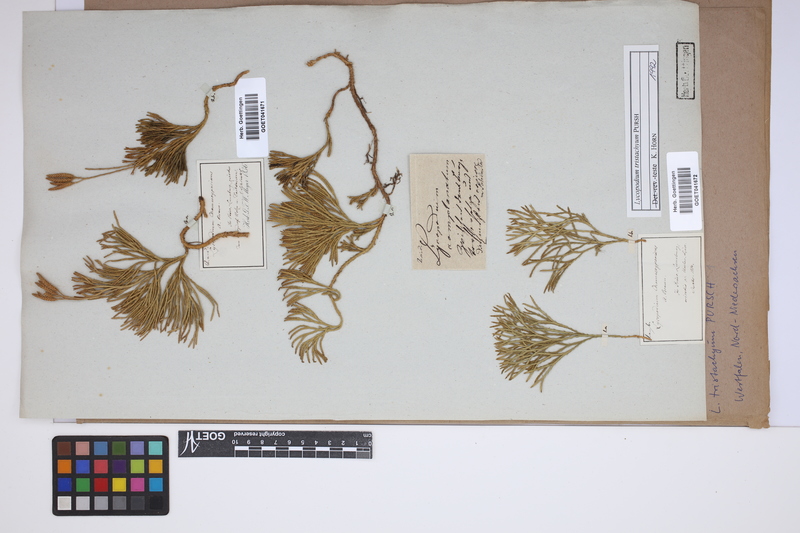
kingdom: Plantae
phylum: Tracheophyta
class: Lycopodiopsida
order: Lycopodiales
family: Lycopodiaceae
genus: Diphasiastrum
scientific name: Diphasiastrum tristachyum
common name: Blue ground-cedar
